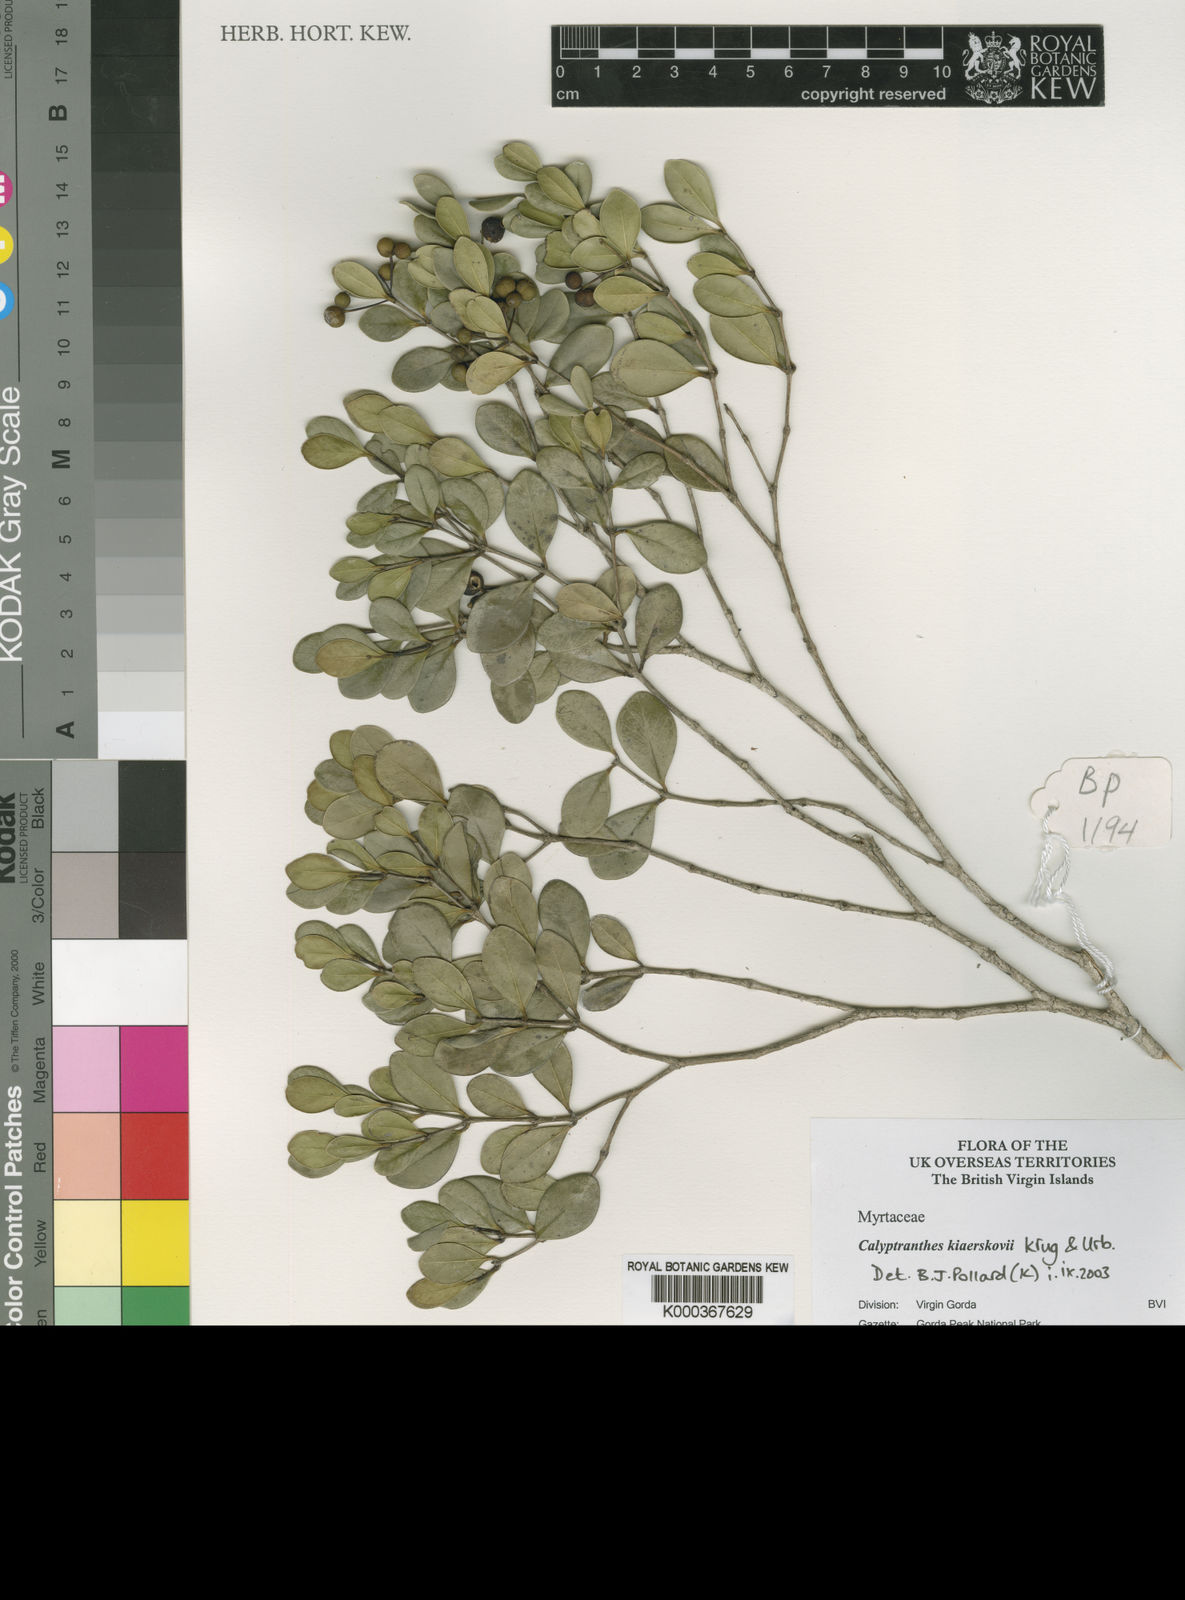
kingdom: Plantae
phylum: Tracheophyta
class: Magnoliopsida
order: Myrtales
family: Myrtaceae
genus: Myrcia
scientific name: Myrcia neokiaerskovii
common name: Kiaerskovii lidflower
